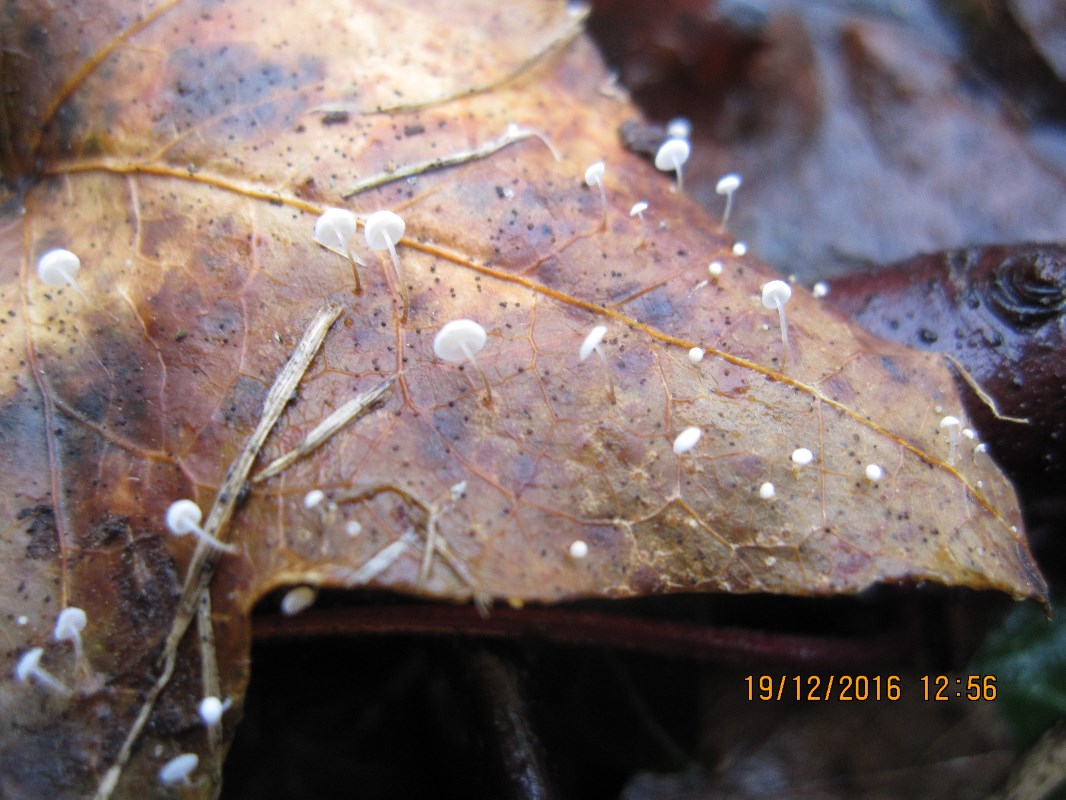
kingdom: Fungi
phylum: Basidiomycota
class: Agaricomycetes
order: Agaricales
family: Marasmiaceae
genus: Marasmius
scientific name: Marasmius epiphylloides
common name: vedbend-bruskhat
